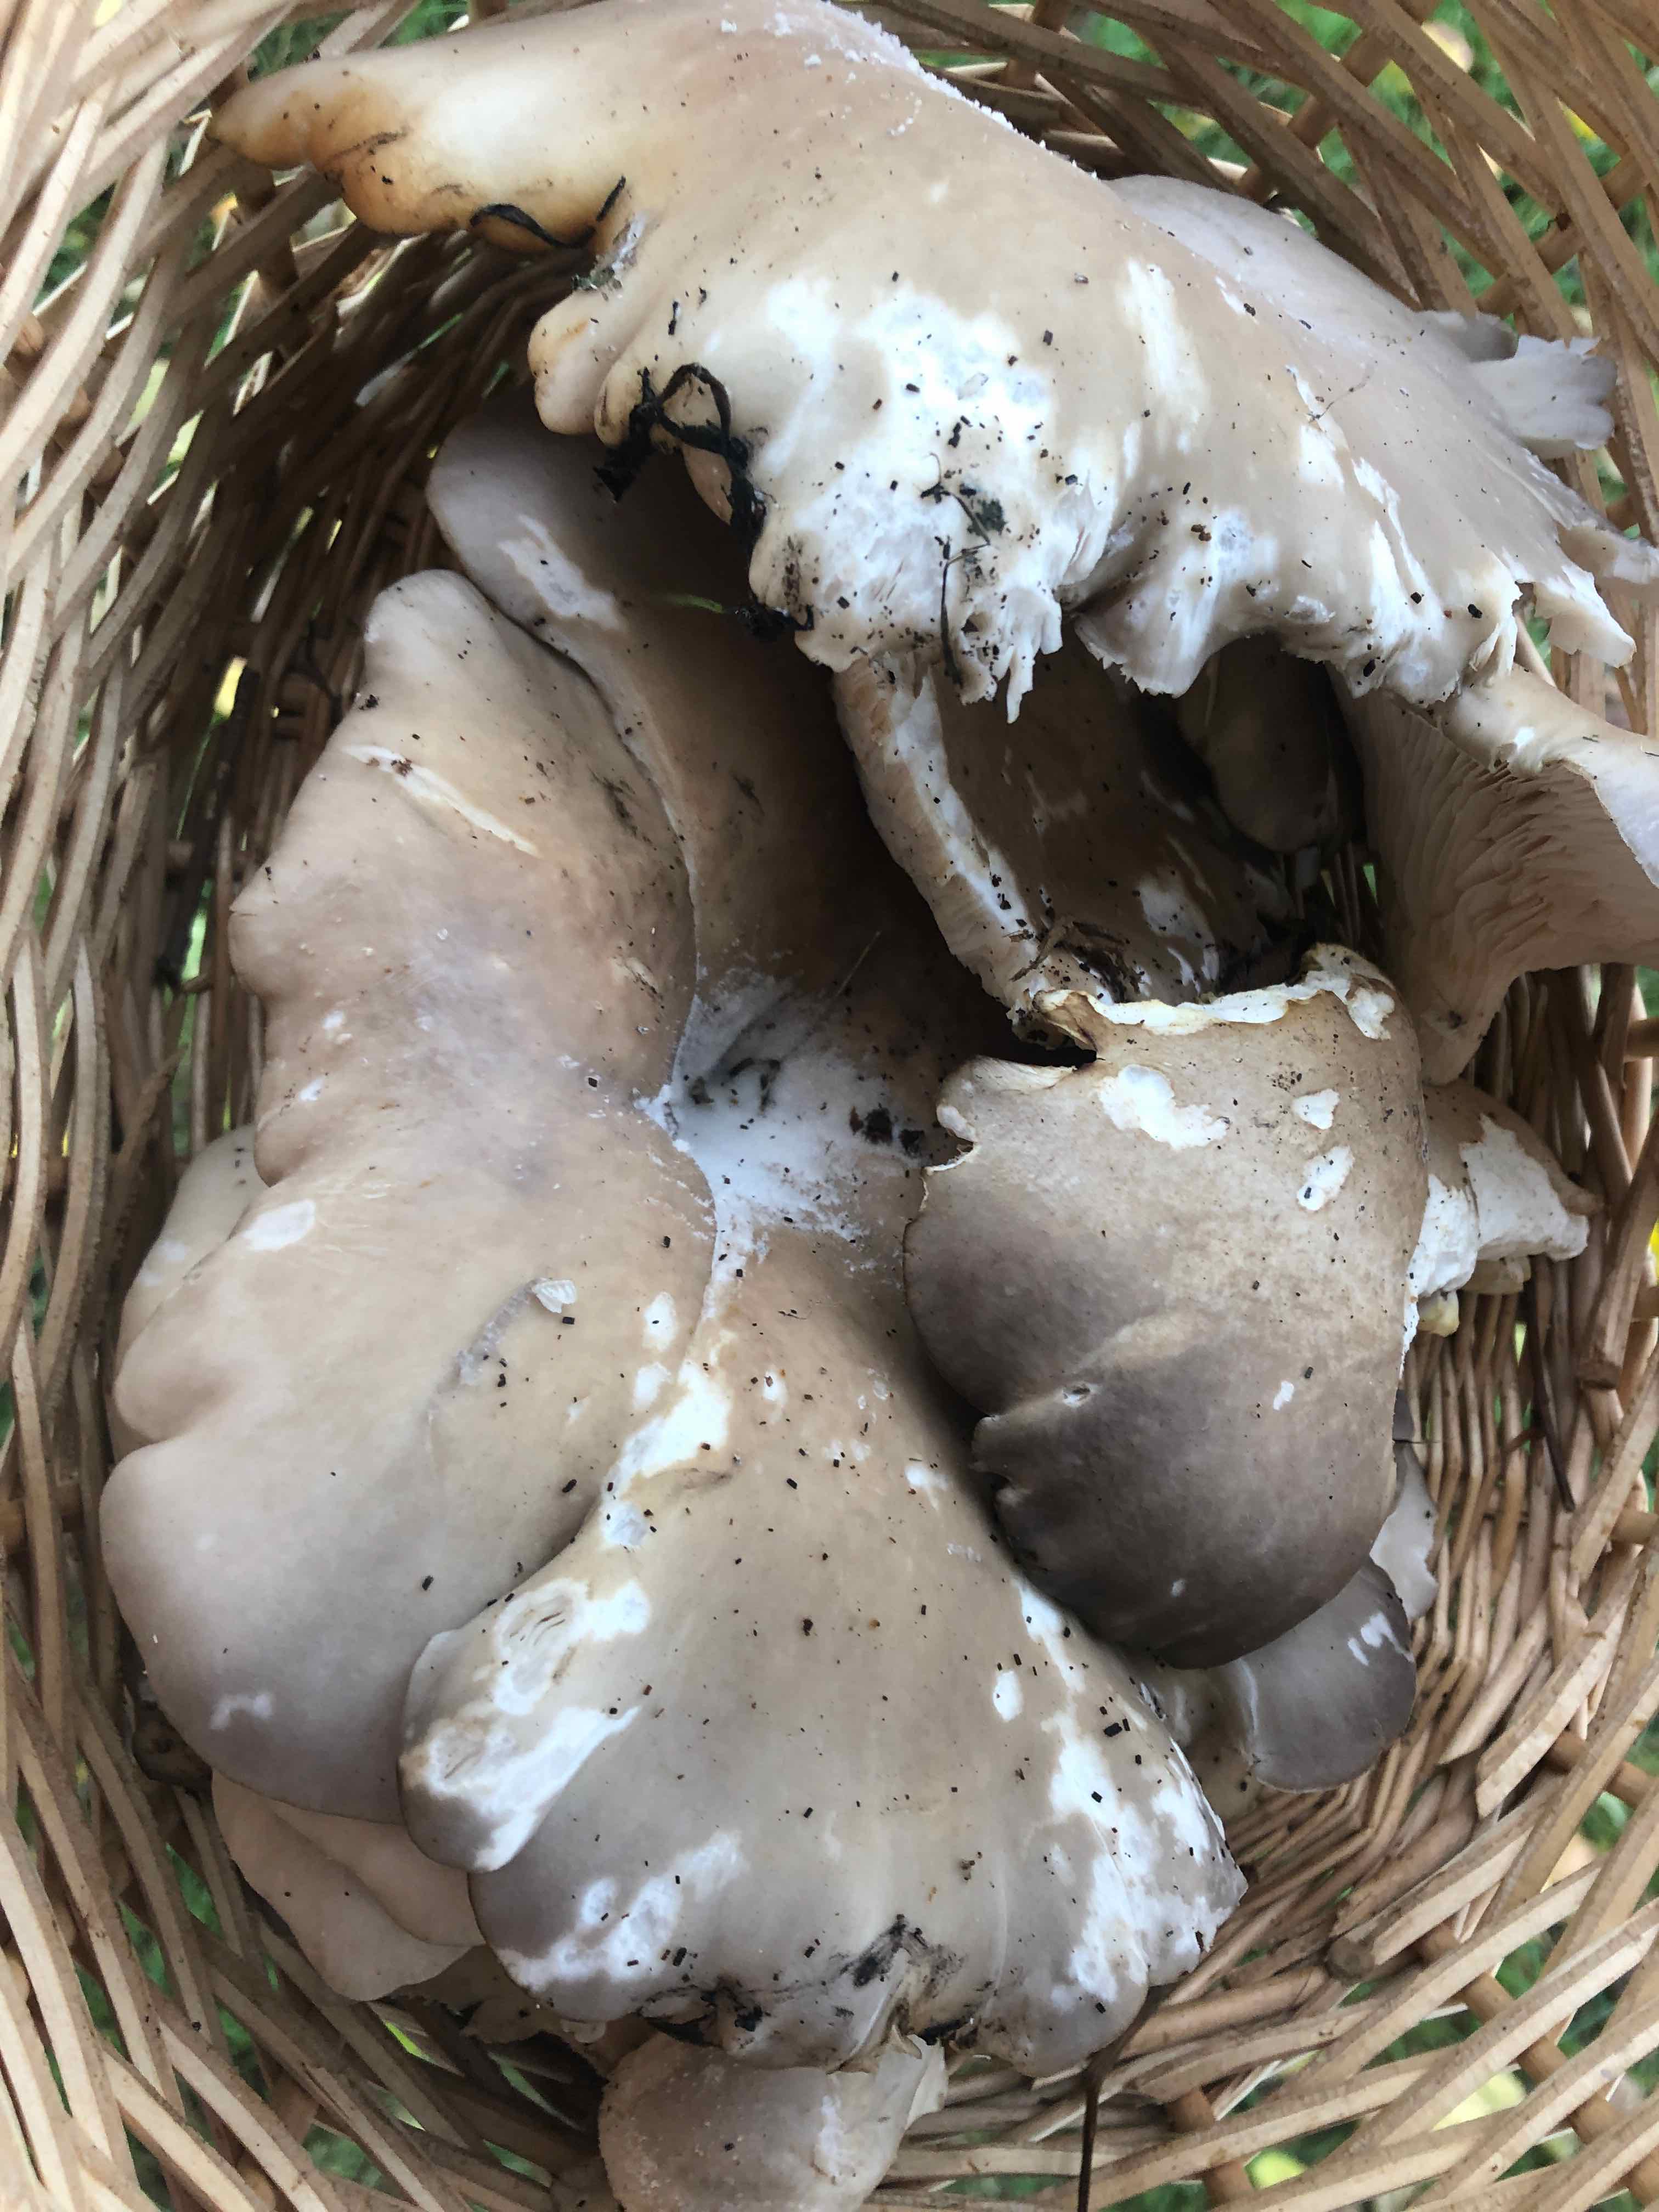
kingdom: Fungi
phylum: Basidiomycota
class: Agaricomycetes
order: Agaricales
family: Pleurotaceae
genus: Pleurotus
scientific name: Pleurotus ostreatus
